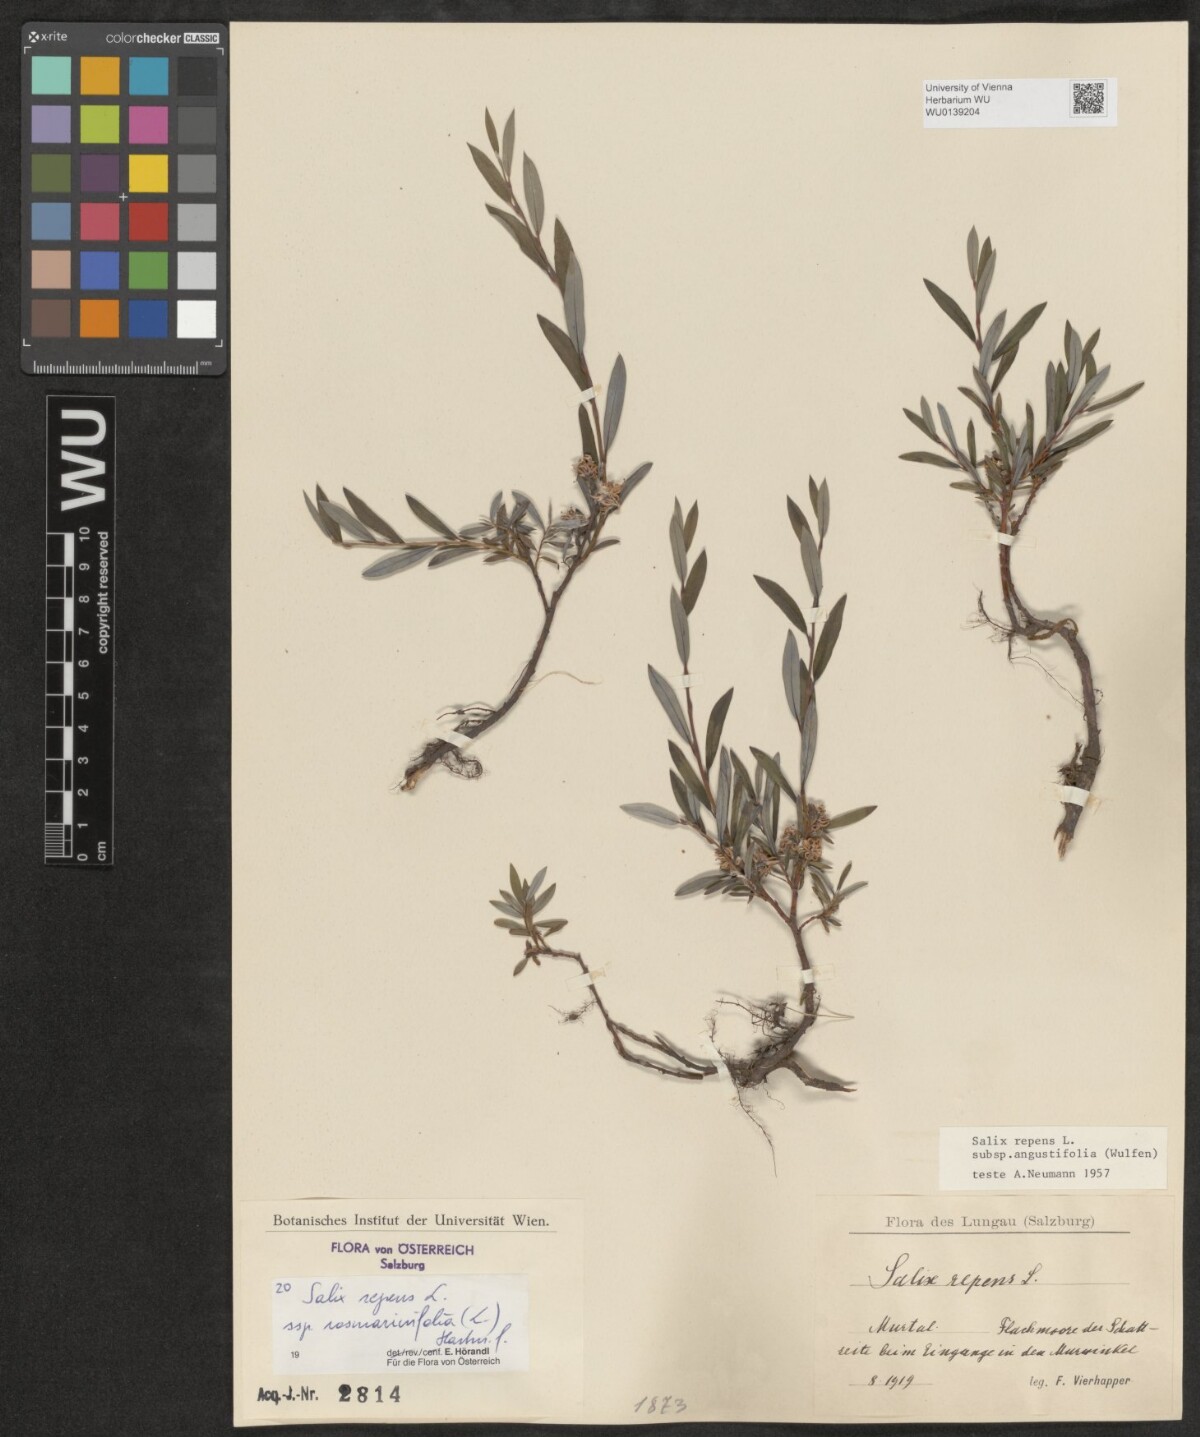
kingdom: Plantae
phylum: Tracheophyta
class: Magnoliopsida
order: Malpighiales
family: Salicaceae
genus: Salix
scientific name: Salix repens
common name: Creeping willow
